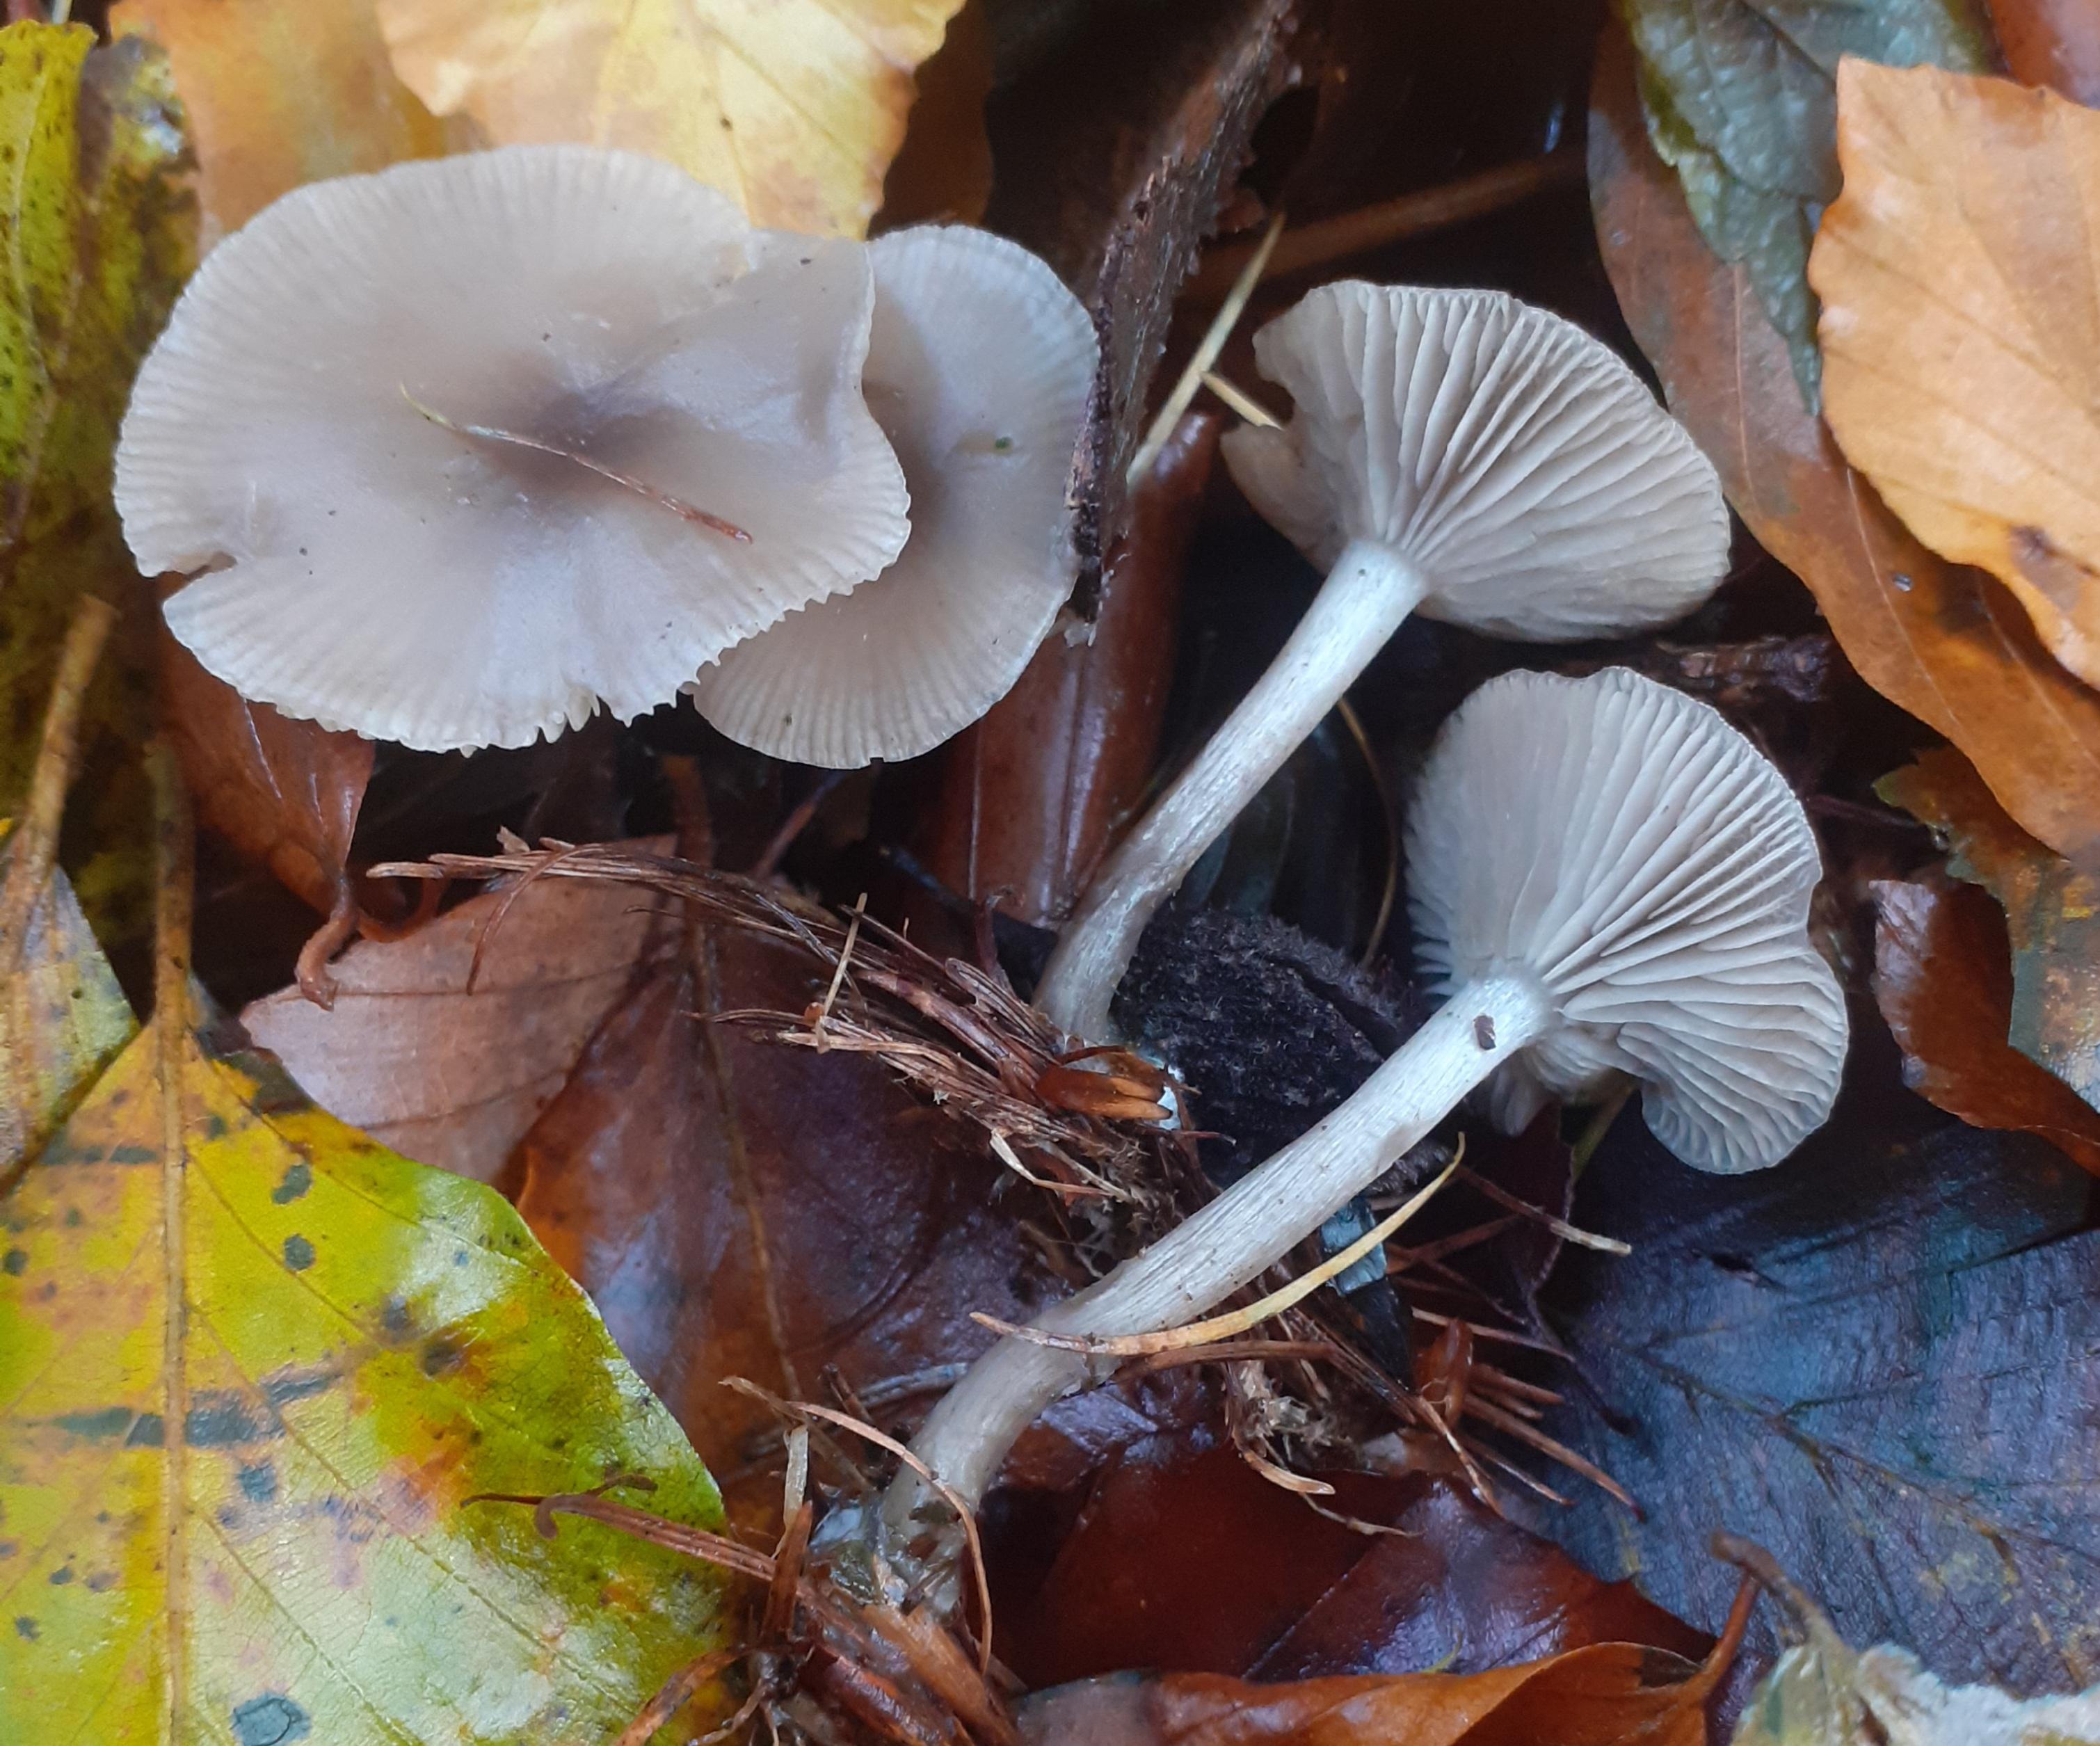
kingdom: Fungi
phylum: Basidiomycota
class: Agaricomycetes
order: Agaricales
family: Tricholomataceae
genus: Clitocybe
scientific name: Clitocybe metachroa
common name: grå tragthat
